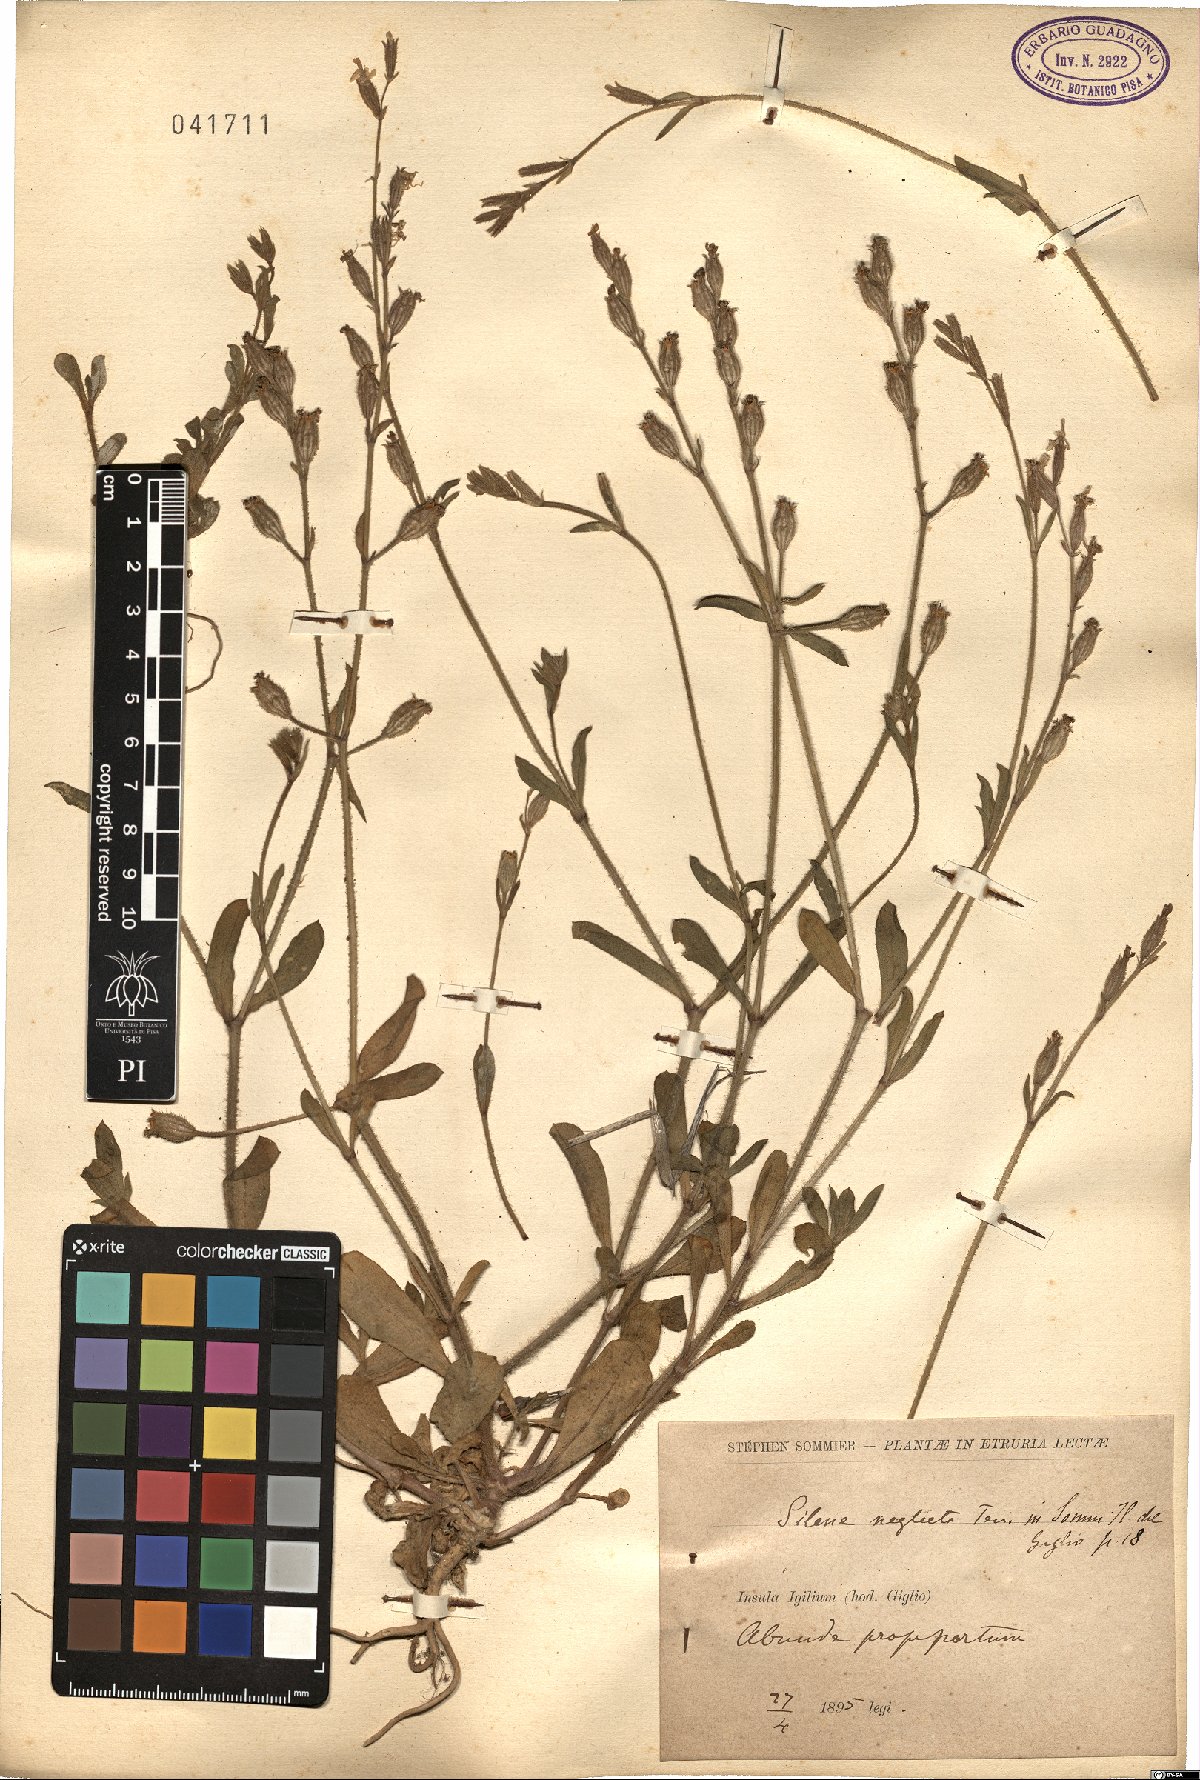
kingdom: Plantae
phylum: Tracheophyta
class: Magnoliopsida
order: Caryophyllales
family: Caryophyllaceae
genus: Silene
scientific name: Silene neglecta
